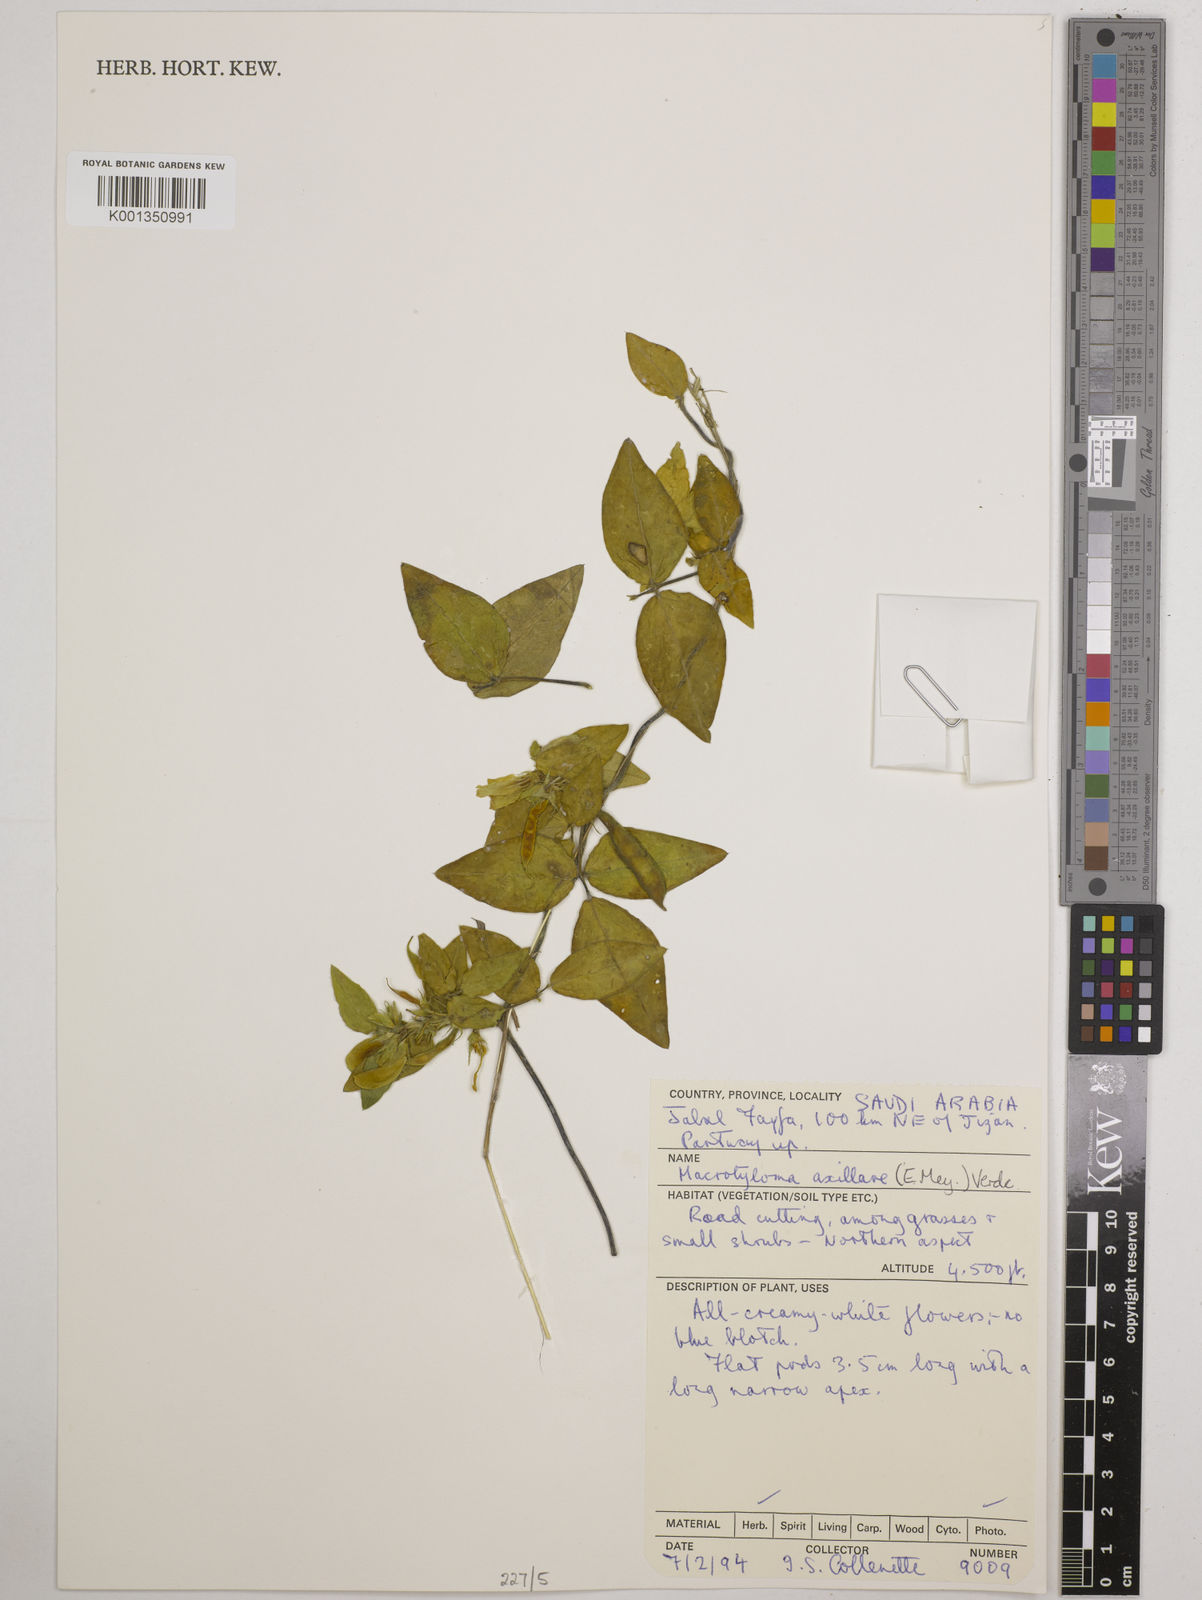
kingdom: Plantae
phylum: Tracheophyta
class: Magnoliopsida
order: Fabales
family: Fabaceae
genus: Macrotyloma
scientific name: Macrotyloma axillare
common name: Perennial horsegram
